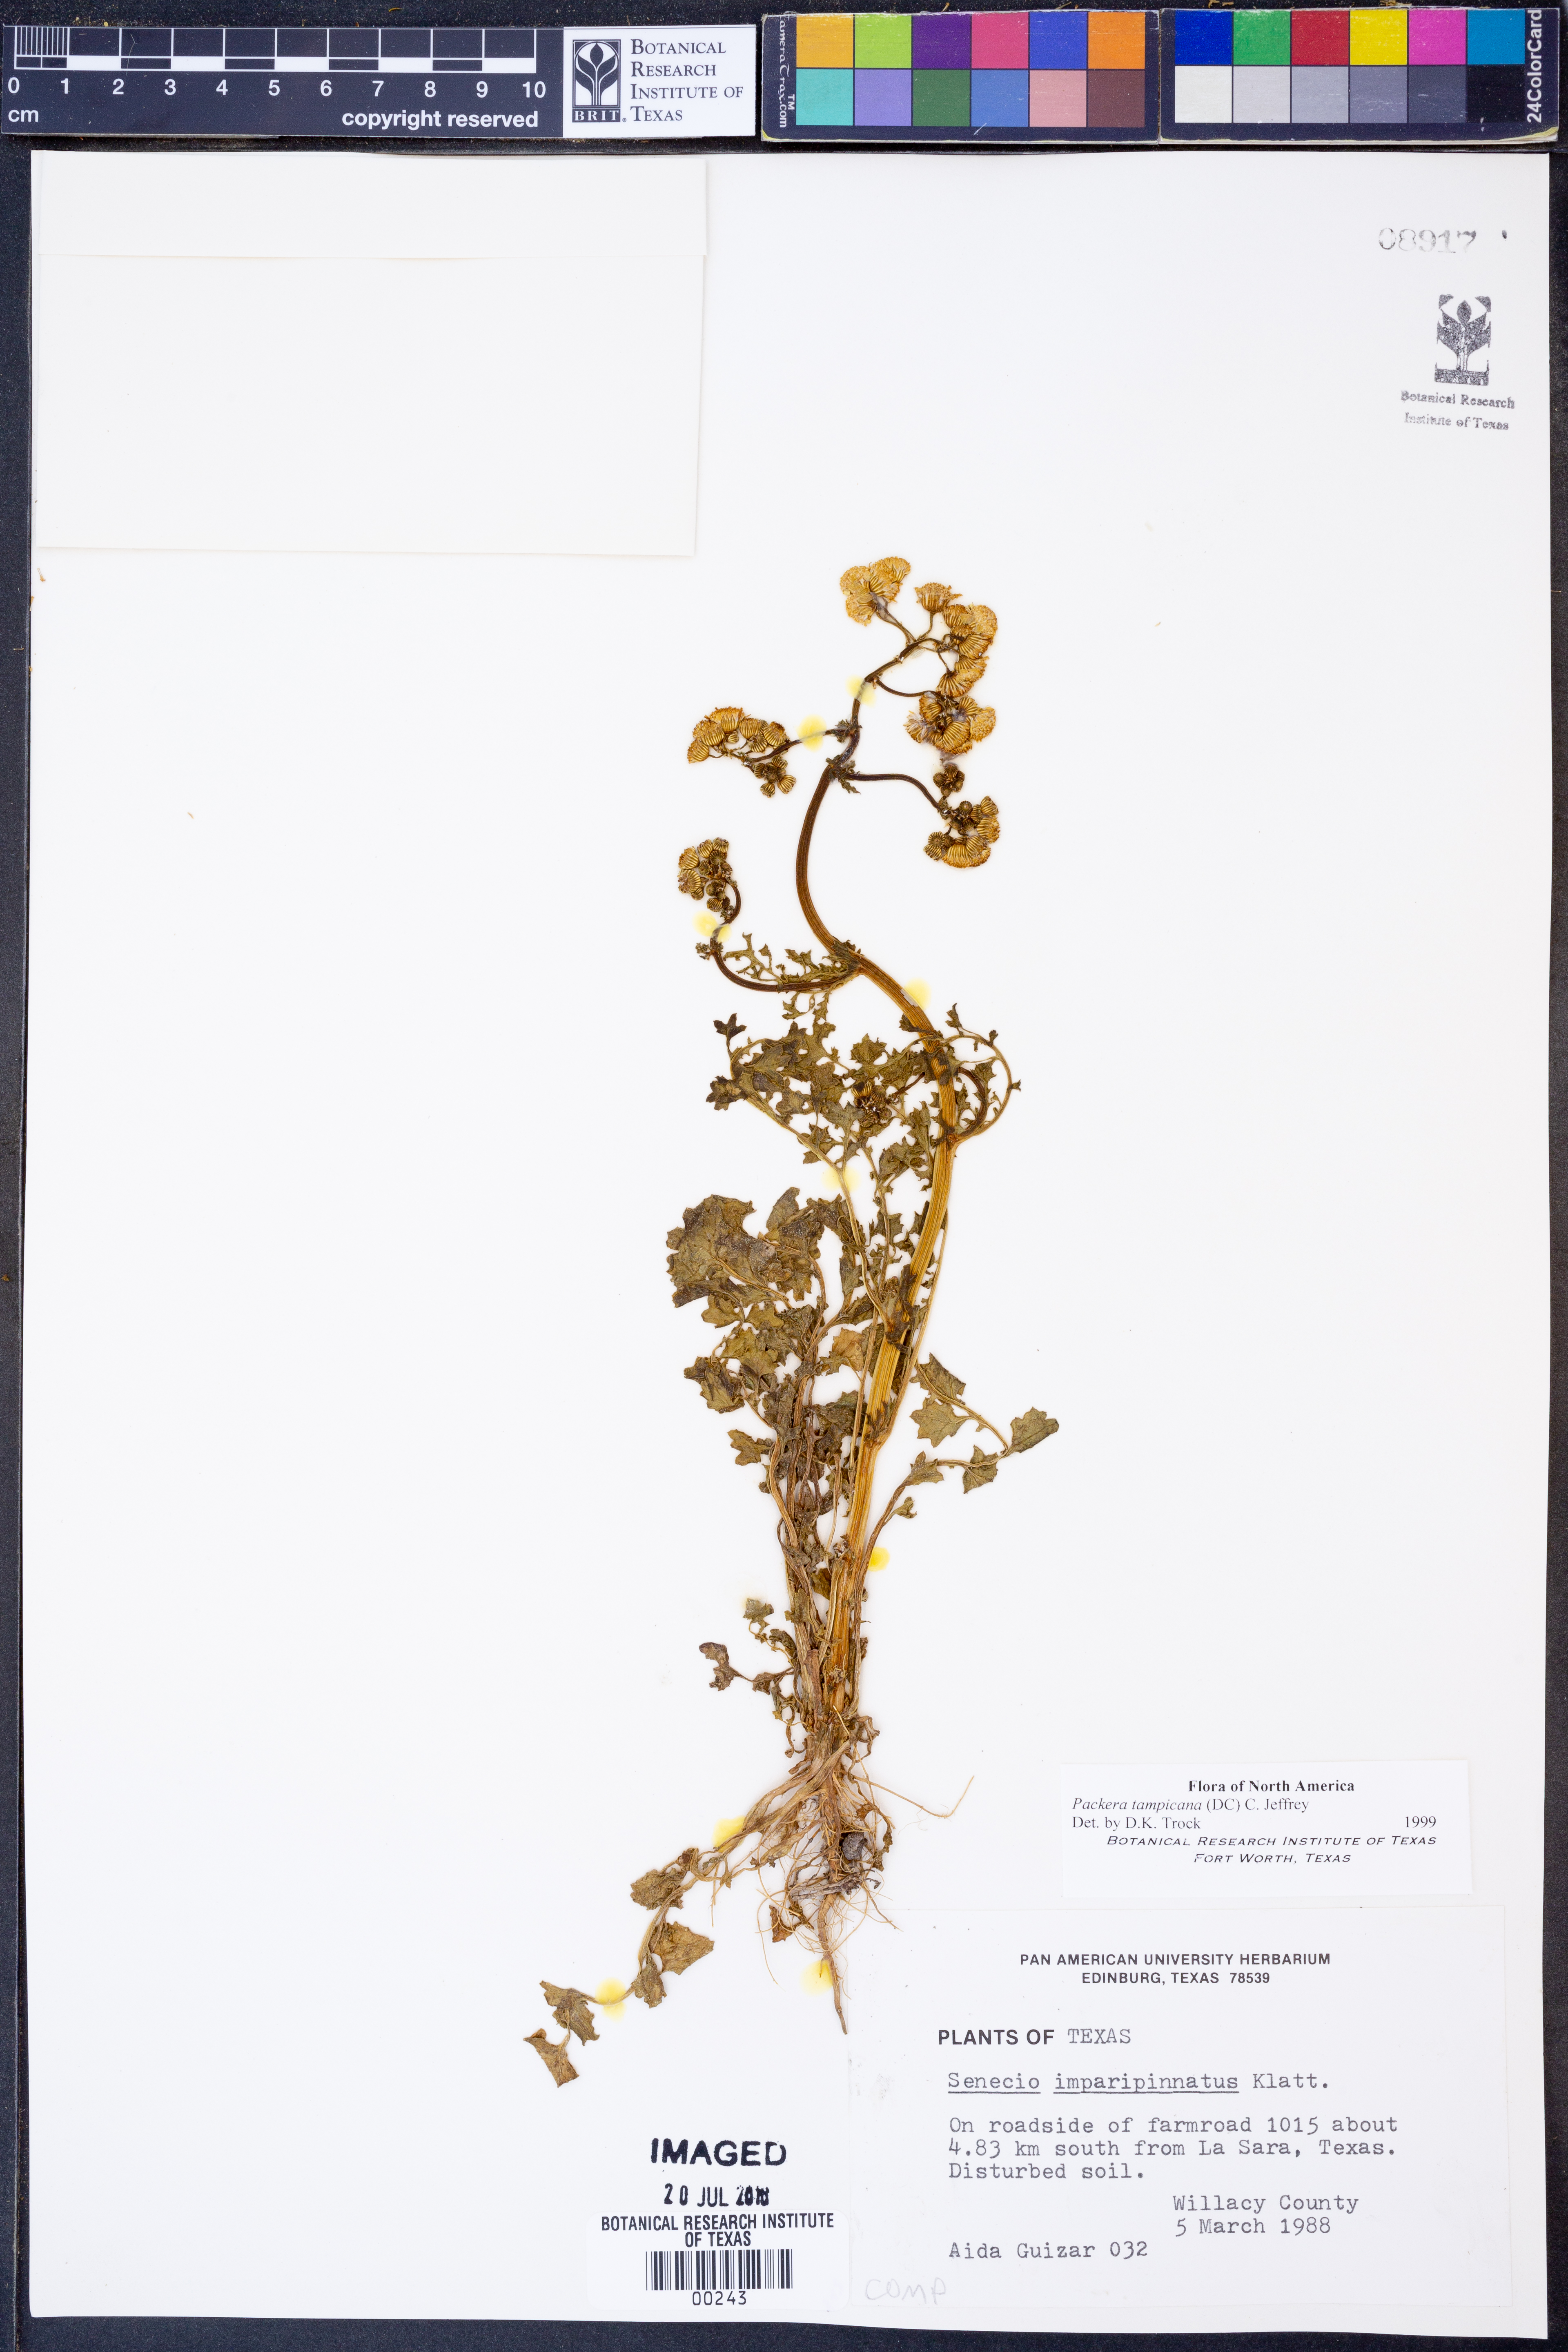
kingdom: Plantae
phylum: Tracheophyta
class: Magnoliopsida
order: Asterales
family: Asteraceae
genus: Packera
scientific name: Packera tampicana
